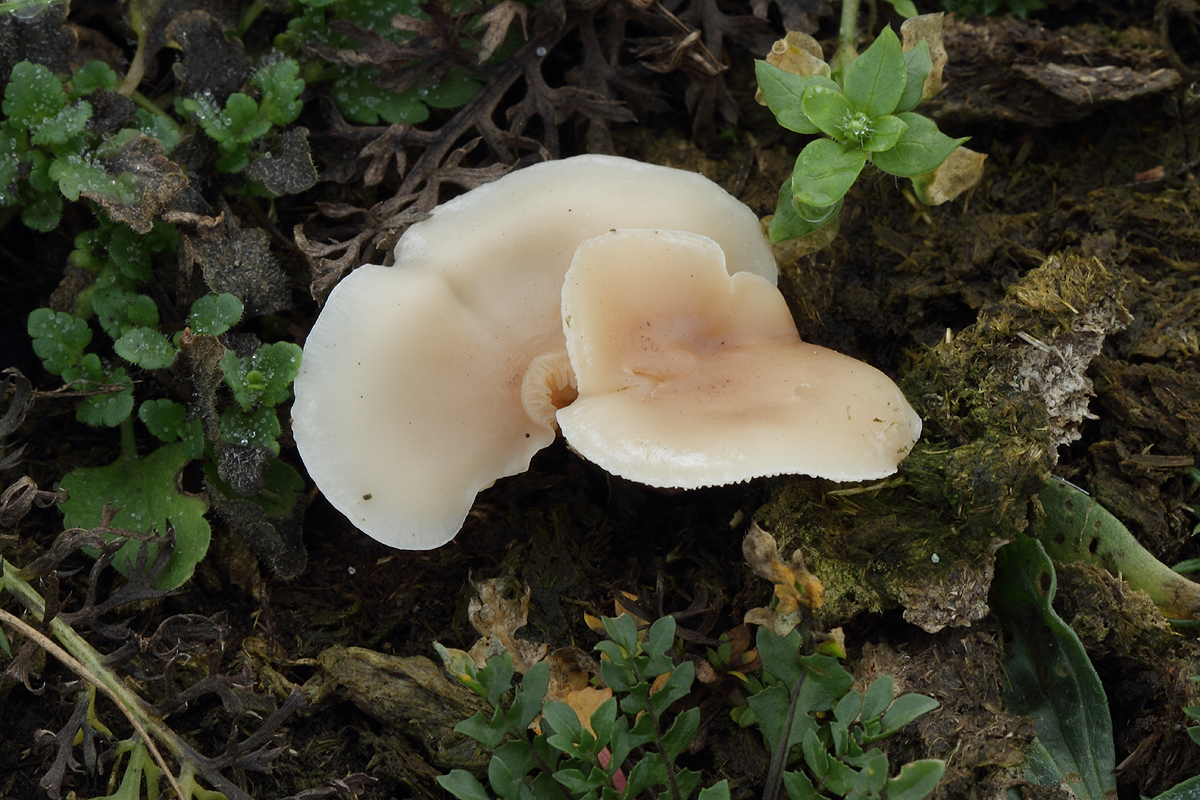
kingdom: Fungi
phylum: Basidiomycota
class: Agaricomycetes
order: Agaricales
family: Tricholomataceae
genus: Clitocybe
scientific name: Clitocybe amarescens
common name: gødnings-tragthat
